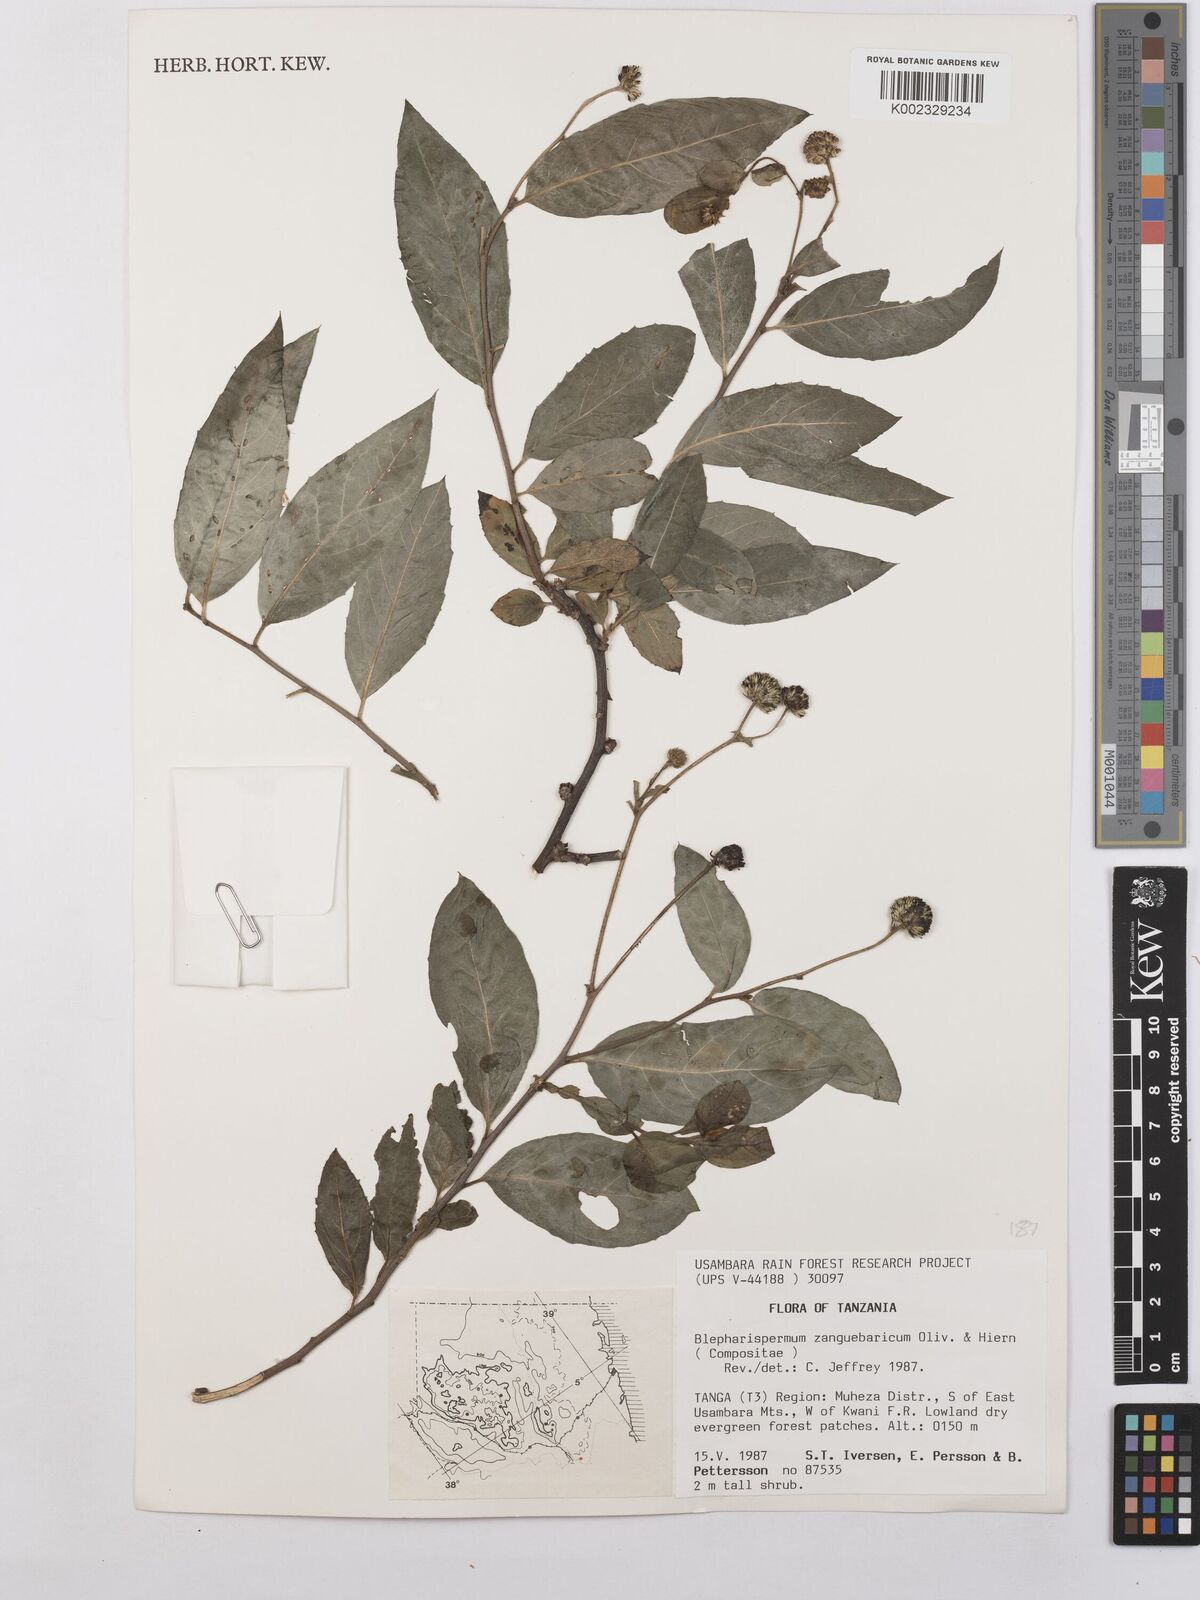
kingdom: Plantae
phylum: Tracheophyta
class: Magnoliopsida
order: Asterales
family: Asteraceae
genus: Blepharispermum
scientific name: Blepharispermum zanguebaricum
